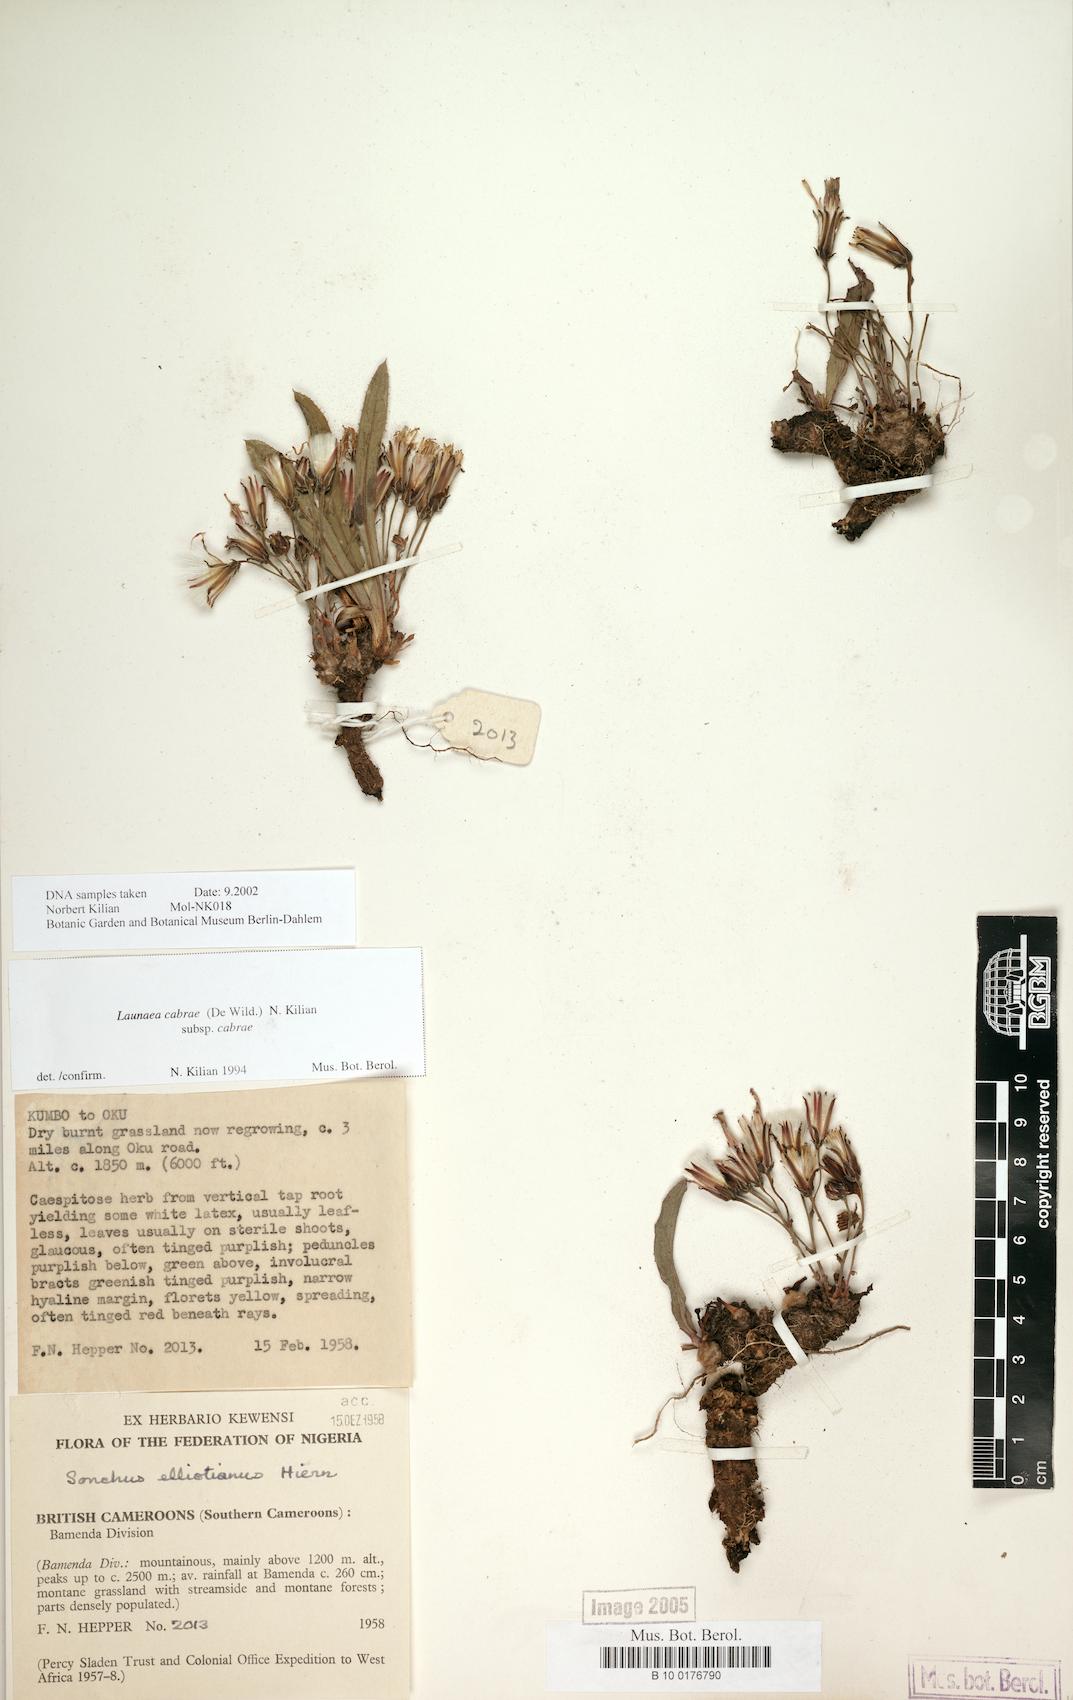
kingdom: Plantae
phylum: Tracheophyta
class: Magnoliopsida
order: Asterales
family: Asteraceae
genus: Launaea
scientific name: Launaea cabrae
